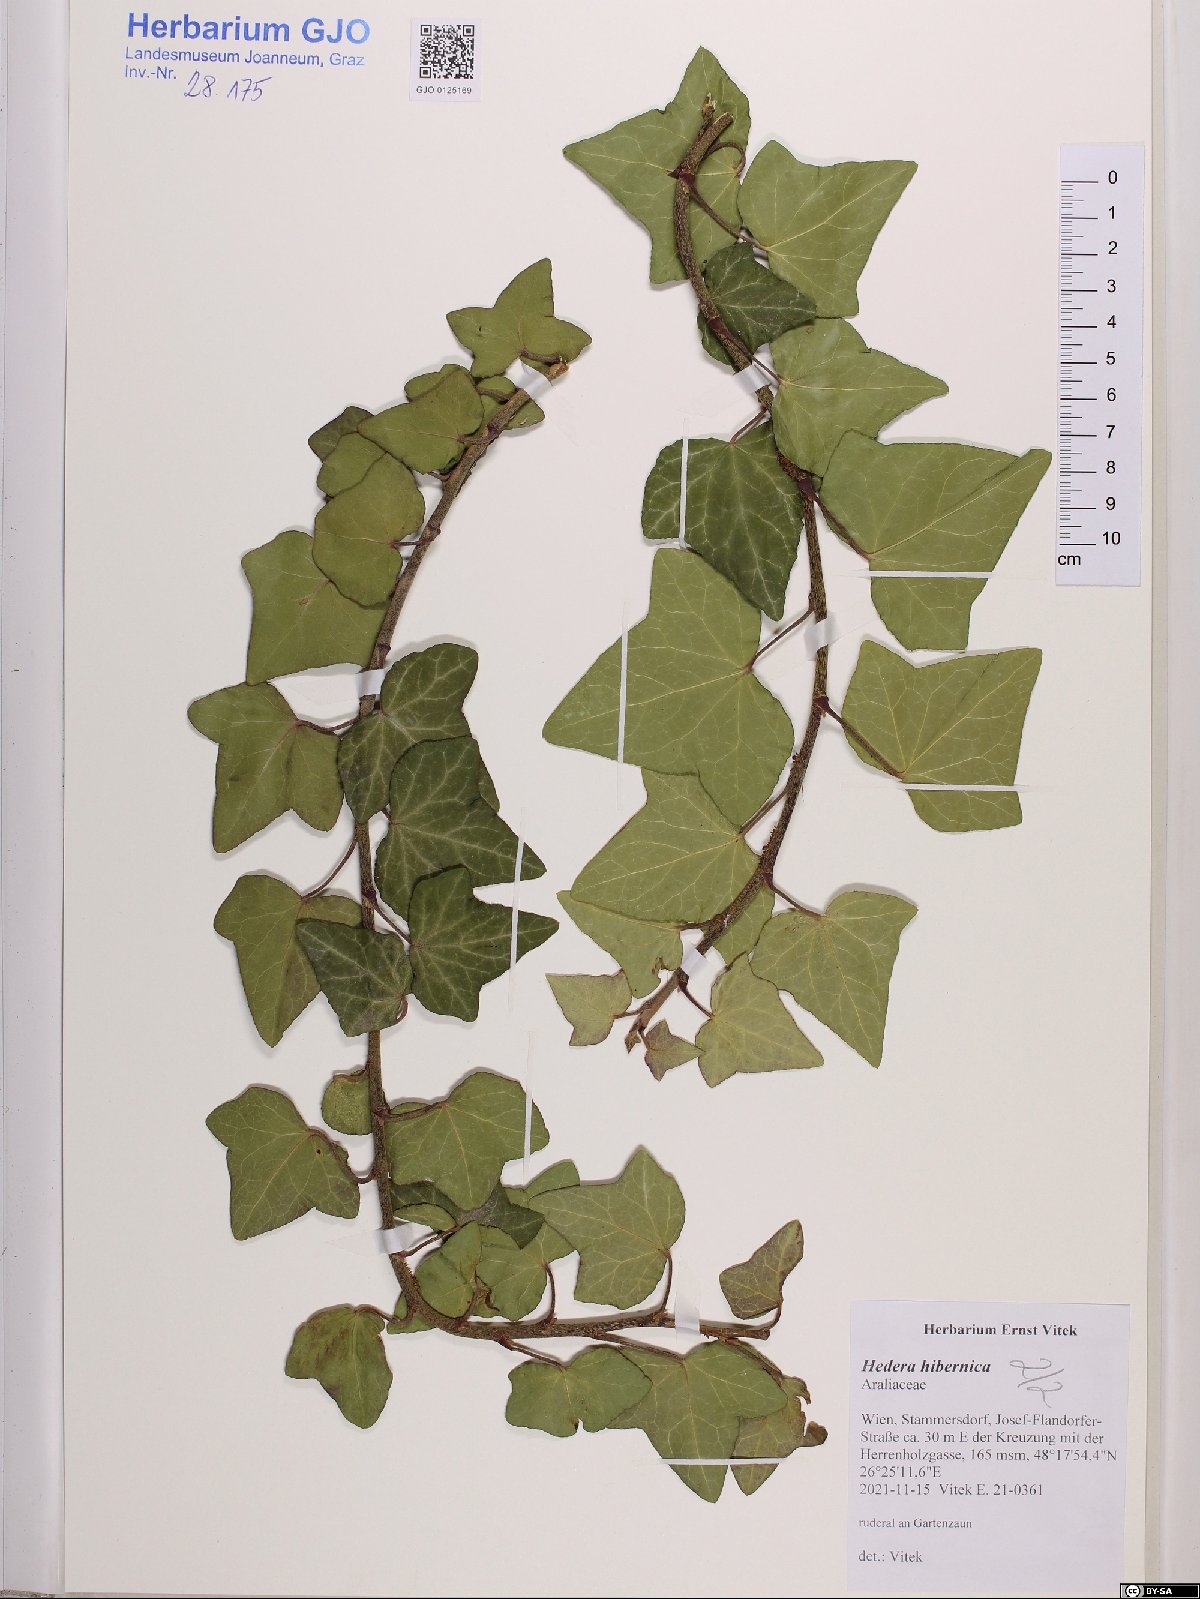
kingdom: Plantae
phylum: Tracheophyta
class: Magnoliopsida
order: Apiales
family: Araliaceae
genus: Hedera
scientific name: Hedera hibernica
